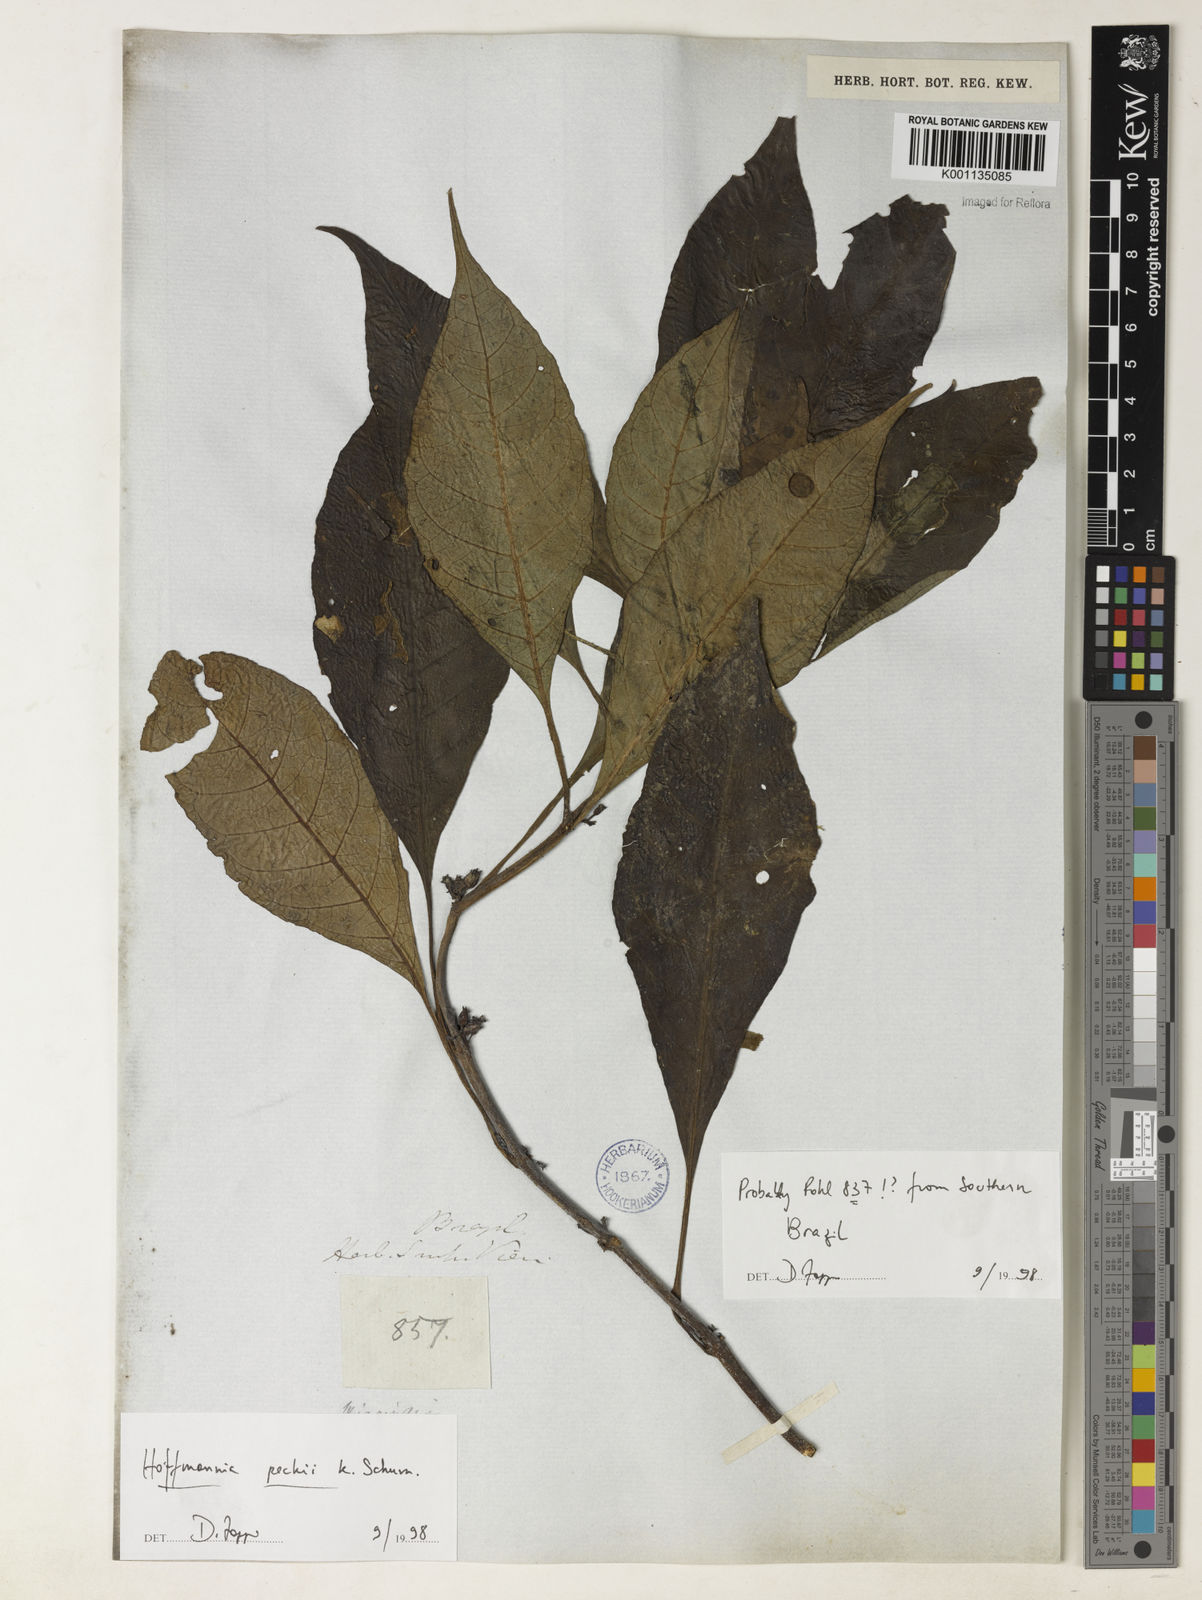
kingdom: Plantae
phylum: Tracheophyta
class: Magnoliopsida
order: Gentianales
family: Rubiaceae
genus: Hoffmannia
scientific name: Hoffmannia peckii
